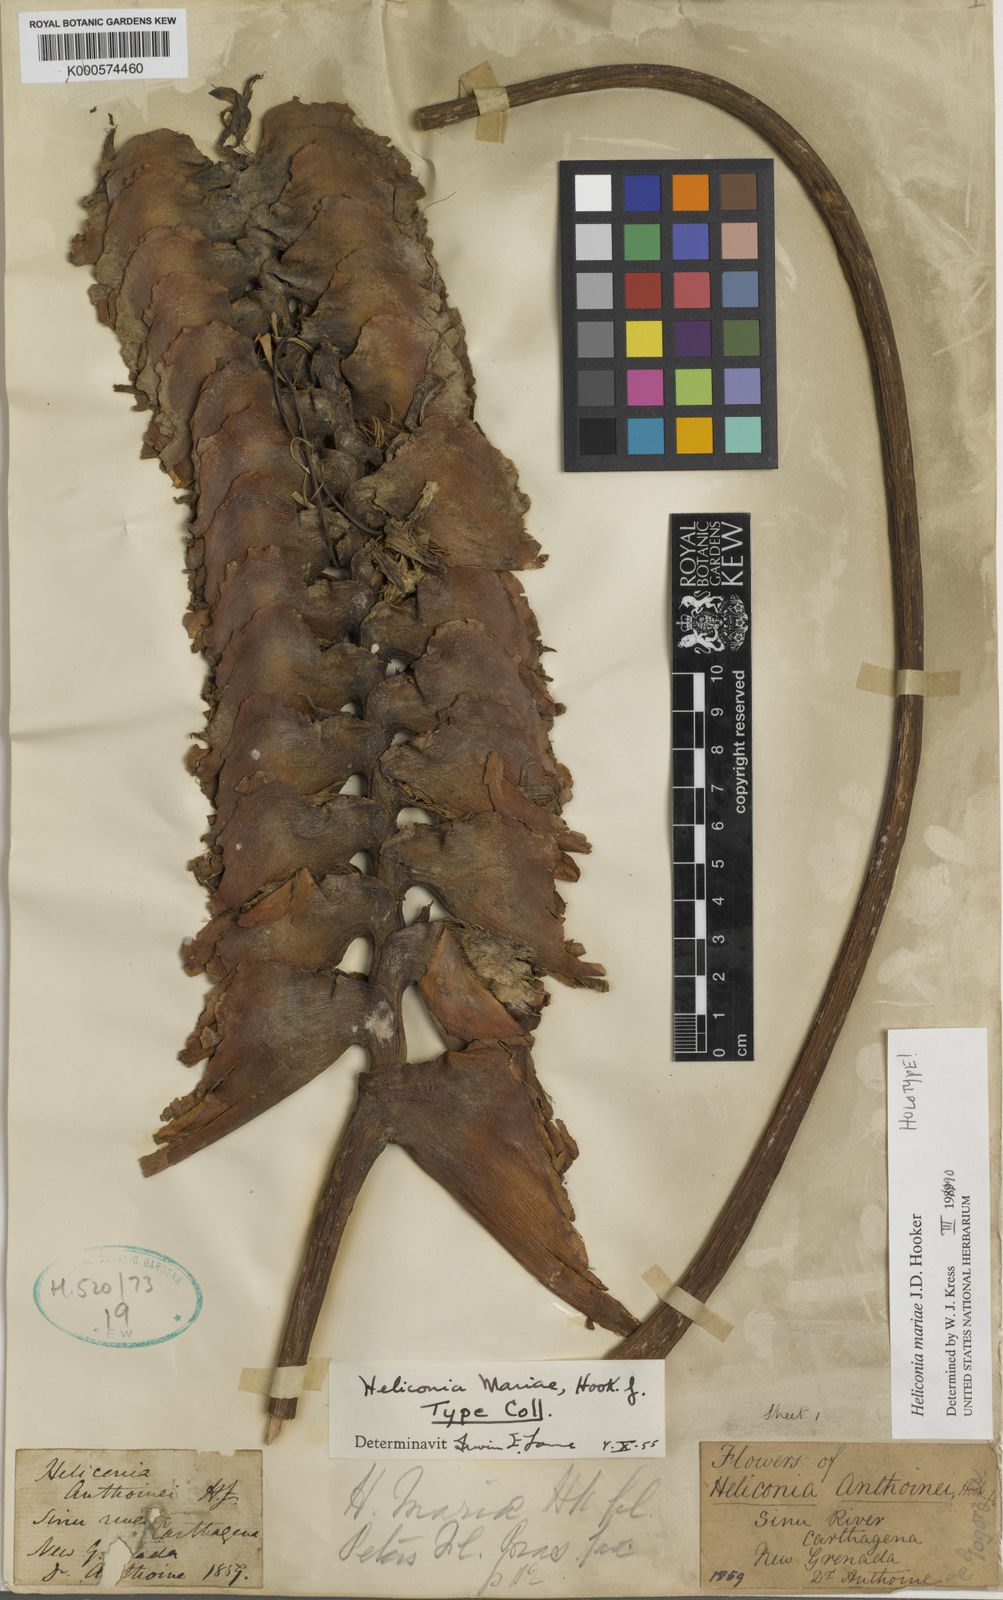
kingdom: Plantae
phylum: Tracheophyta
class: Liliopsida
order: Zingiberales
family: Heliconiaceae
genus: Heliconia
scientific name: Heliconia mariae
